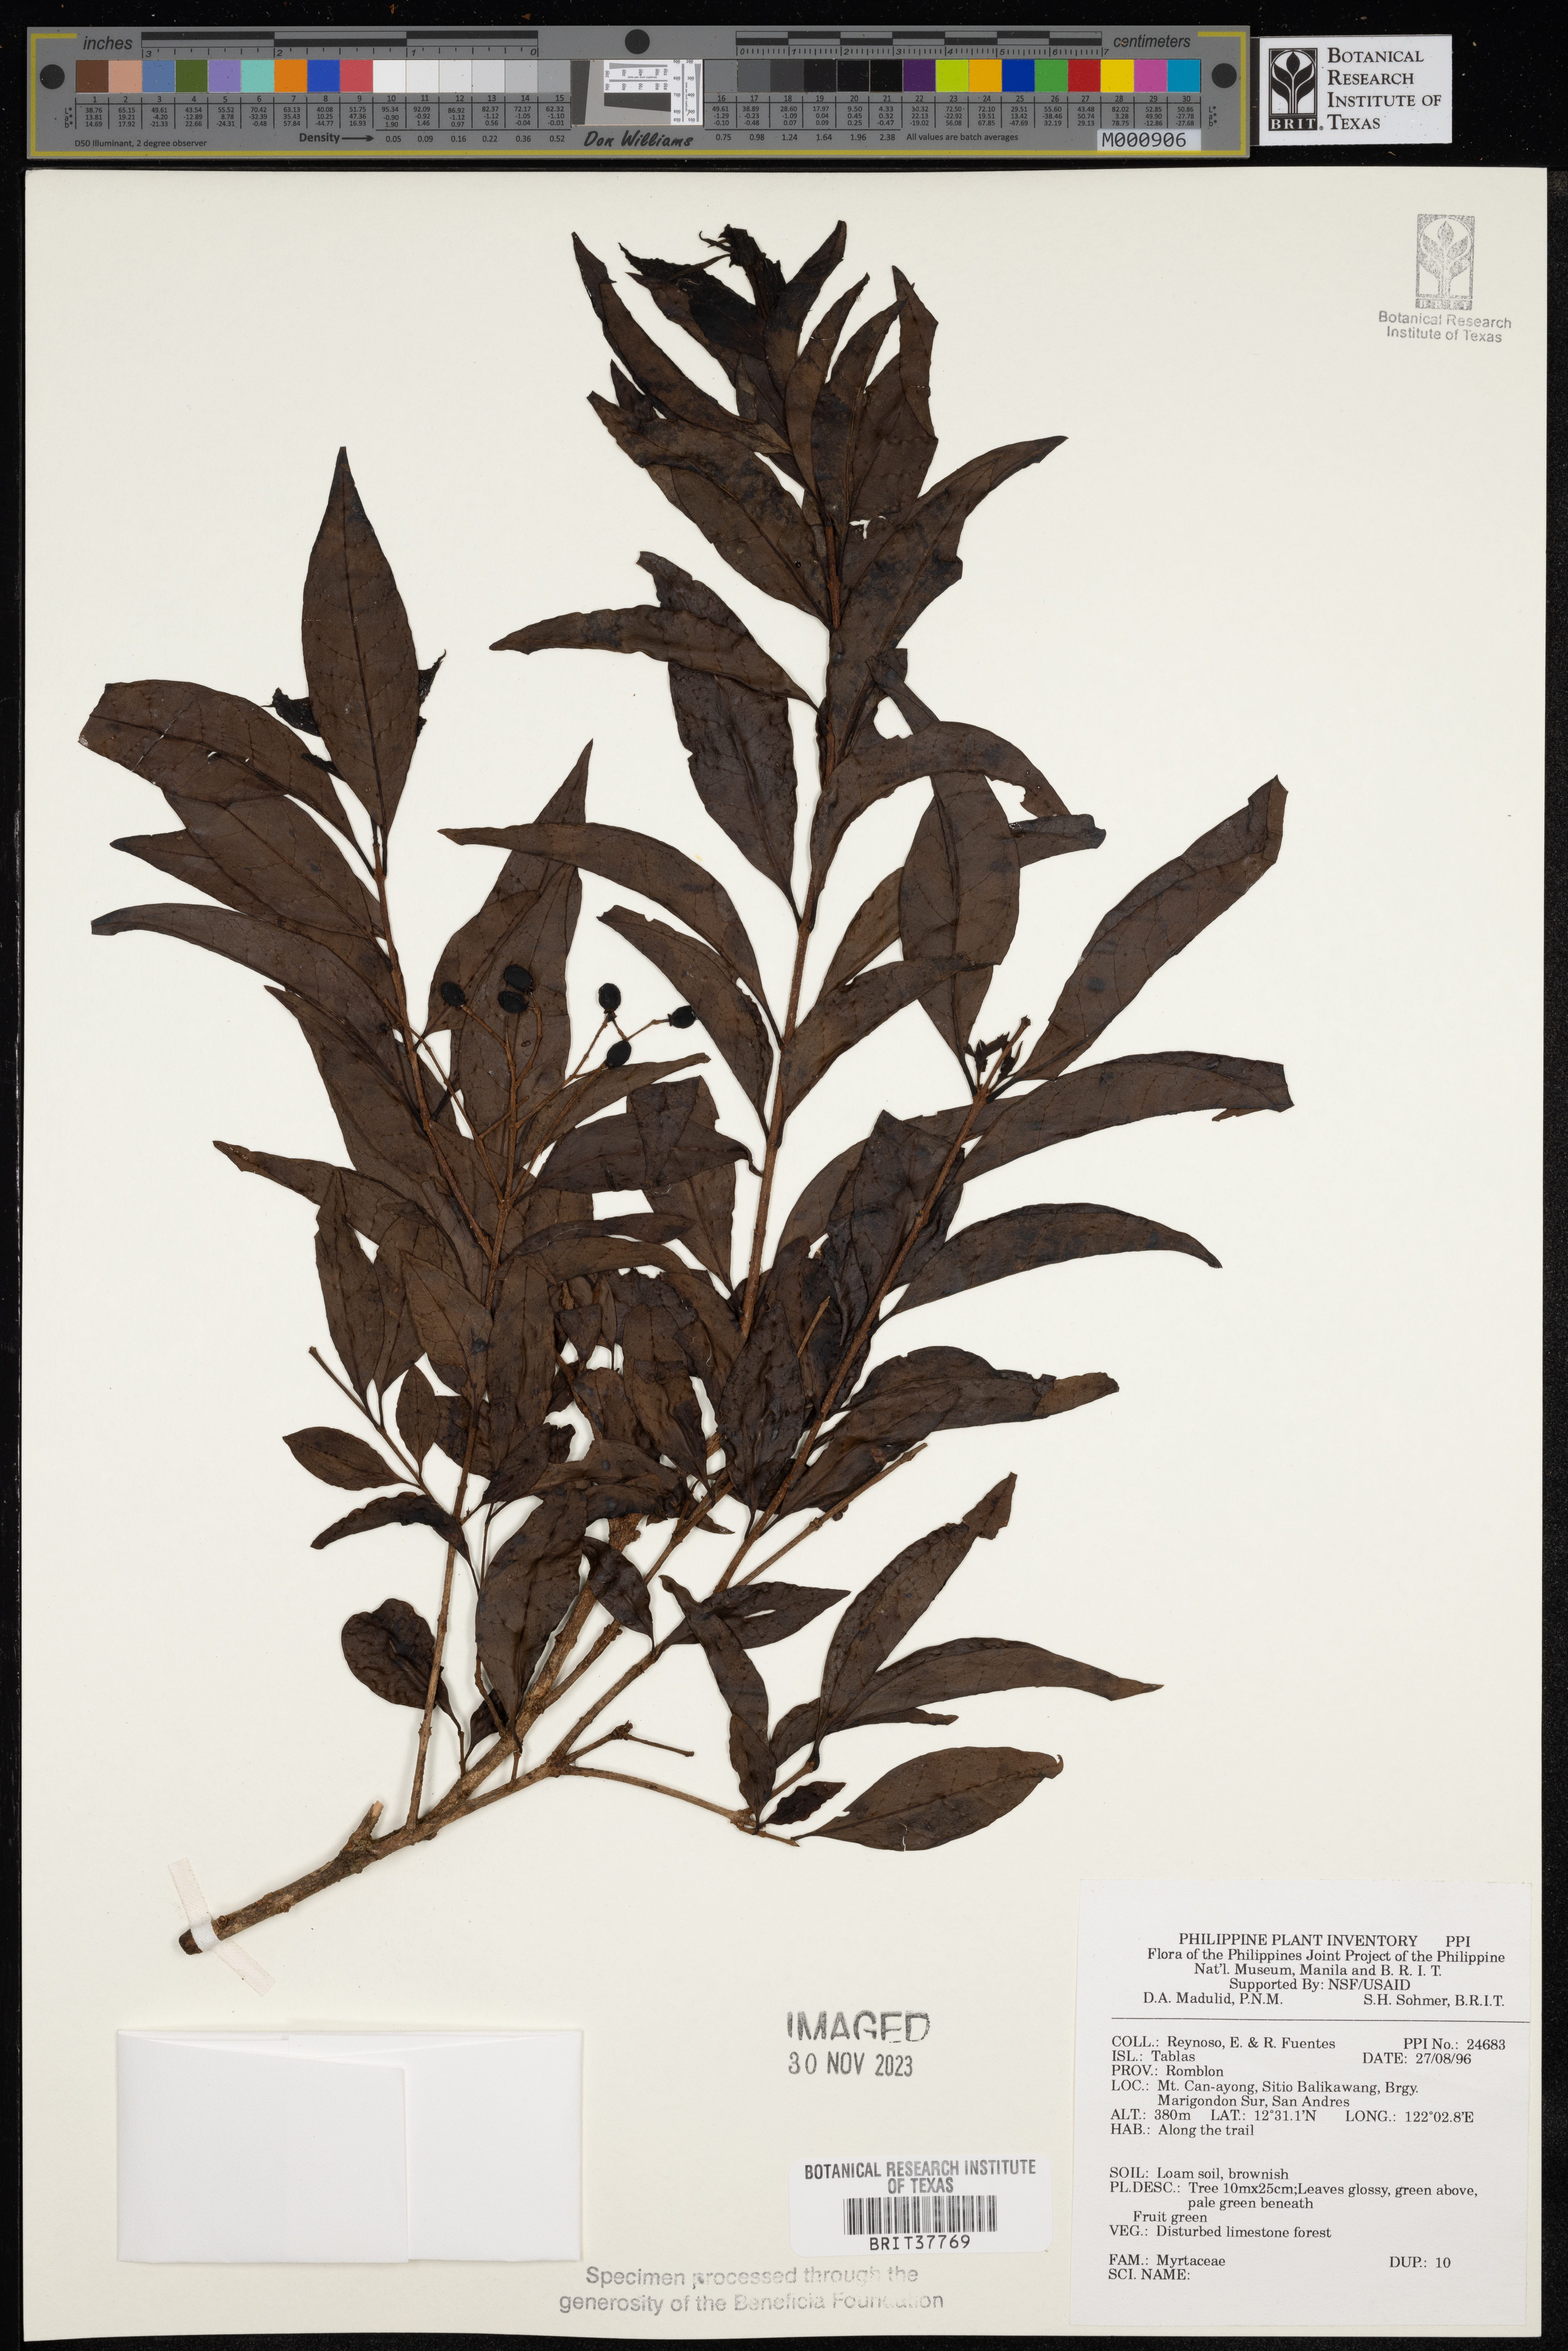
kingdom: Plantae
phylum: Tracheophyta
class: Magnoliopsida
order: Myrtales
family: Myrtaceae
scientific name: Myrtaceae
